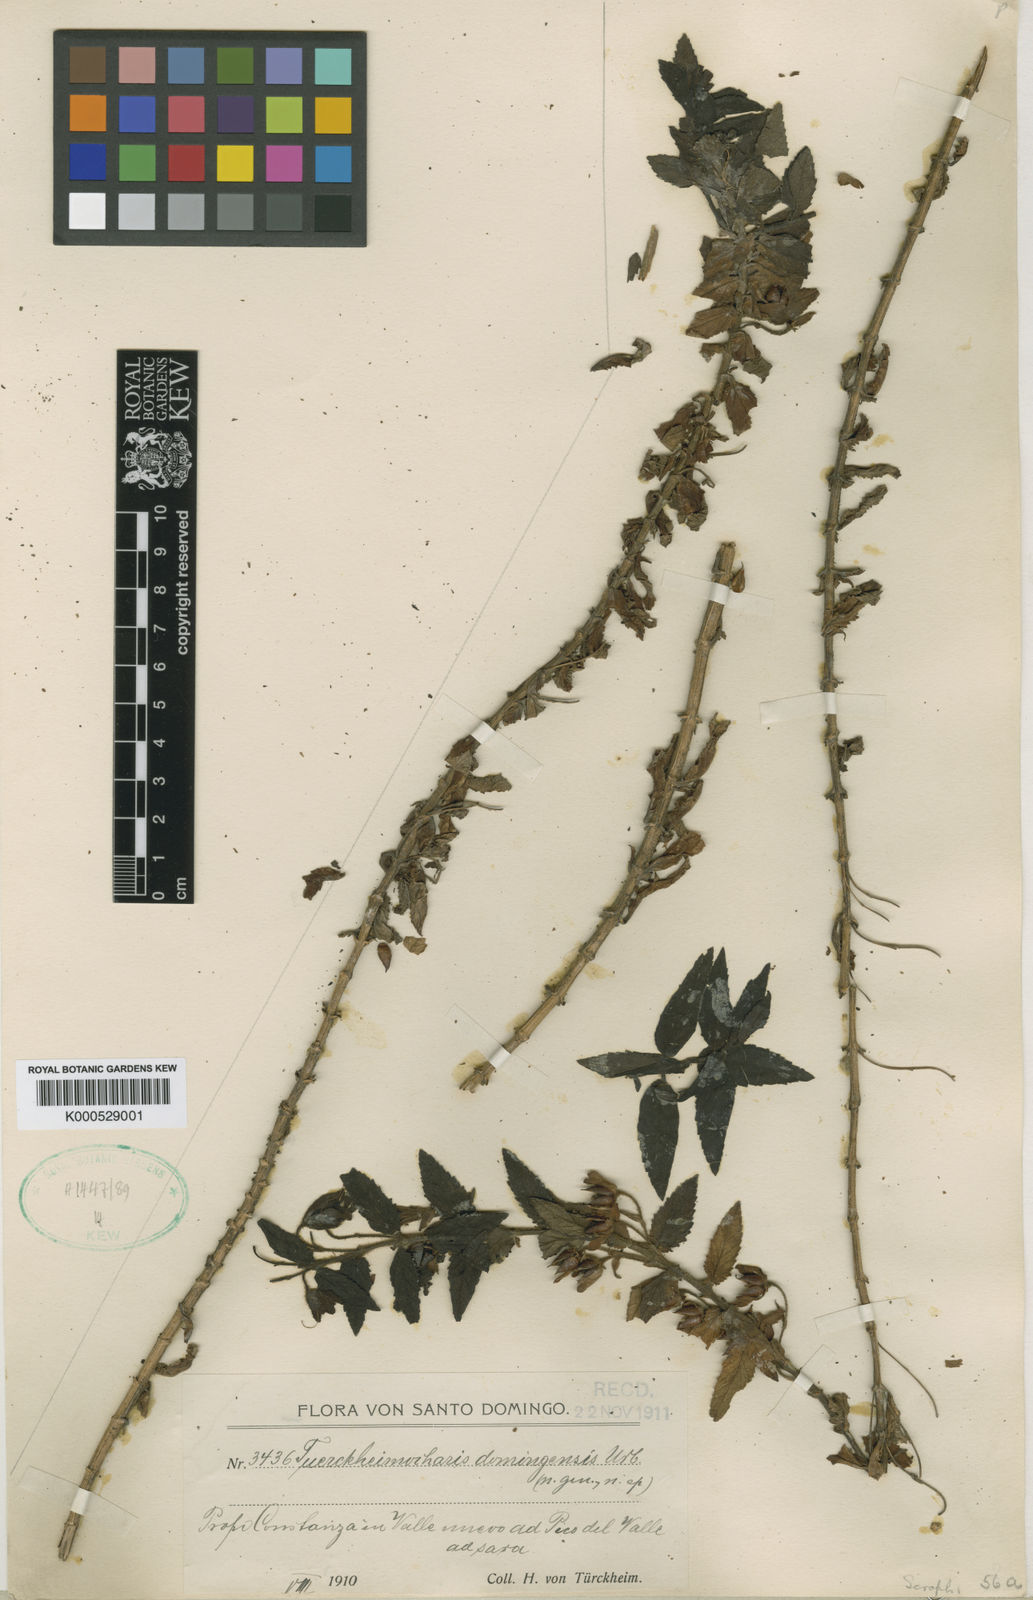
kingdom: Plantae
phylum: Tracheophyta
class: Magnoliopsida
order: Lamiales
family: Scrophulariaceae
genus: Scrophularia
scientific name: Scrophularia tuerckheimii
